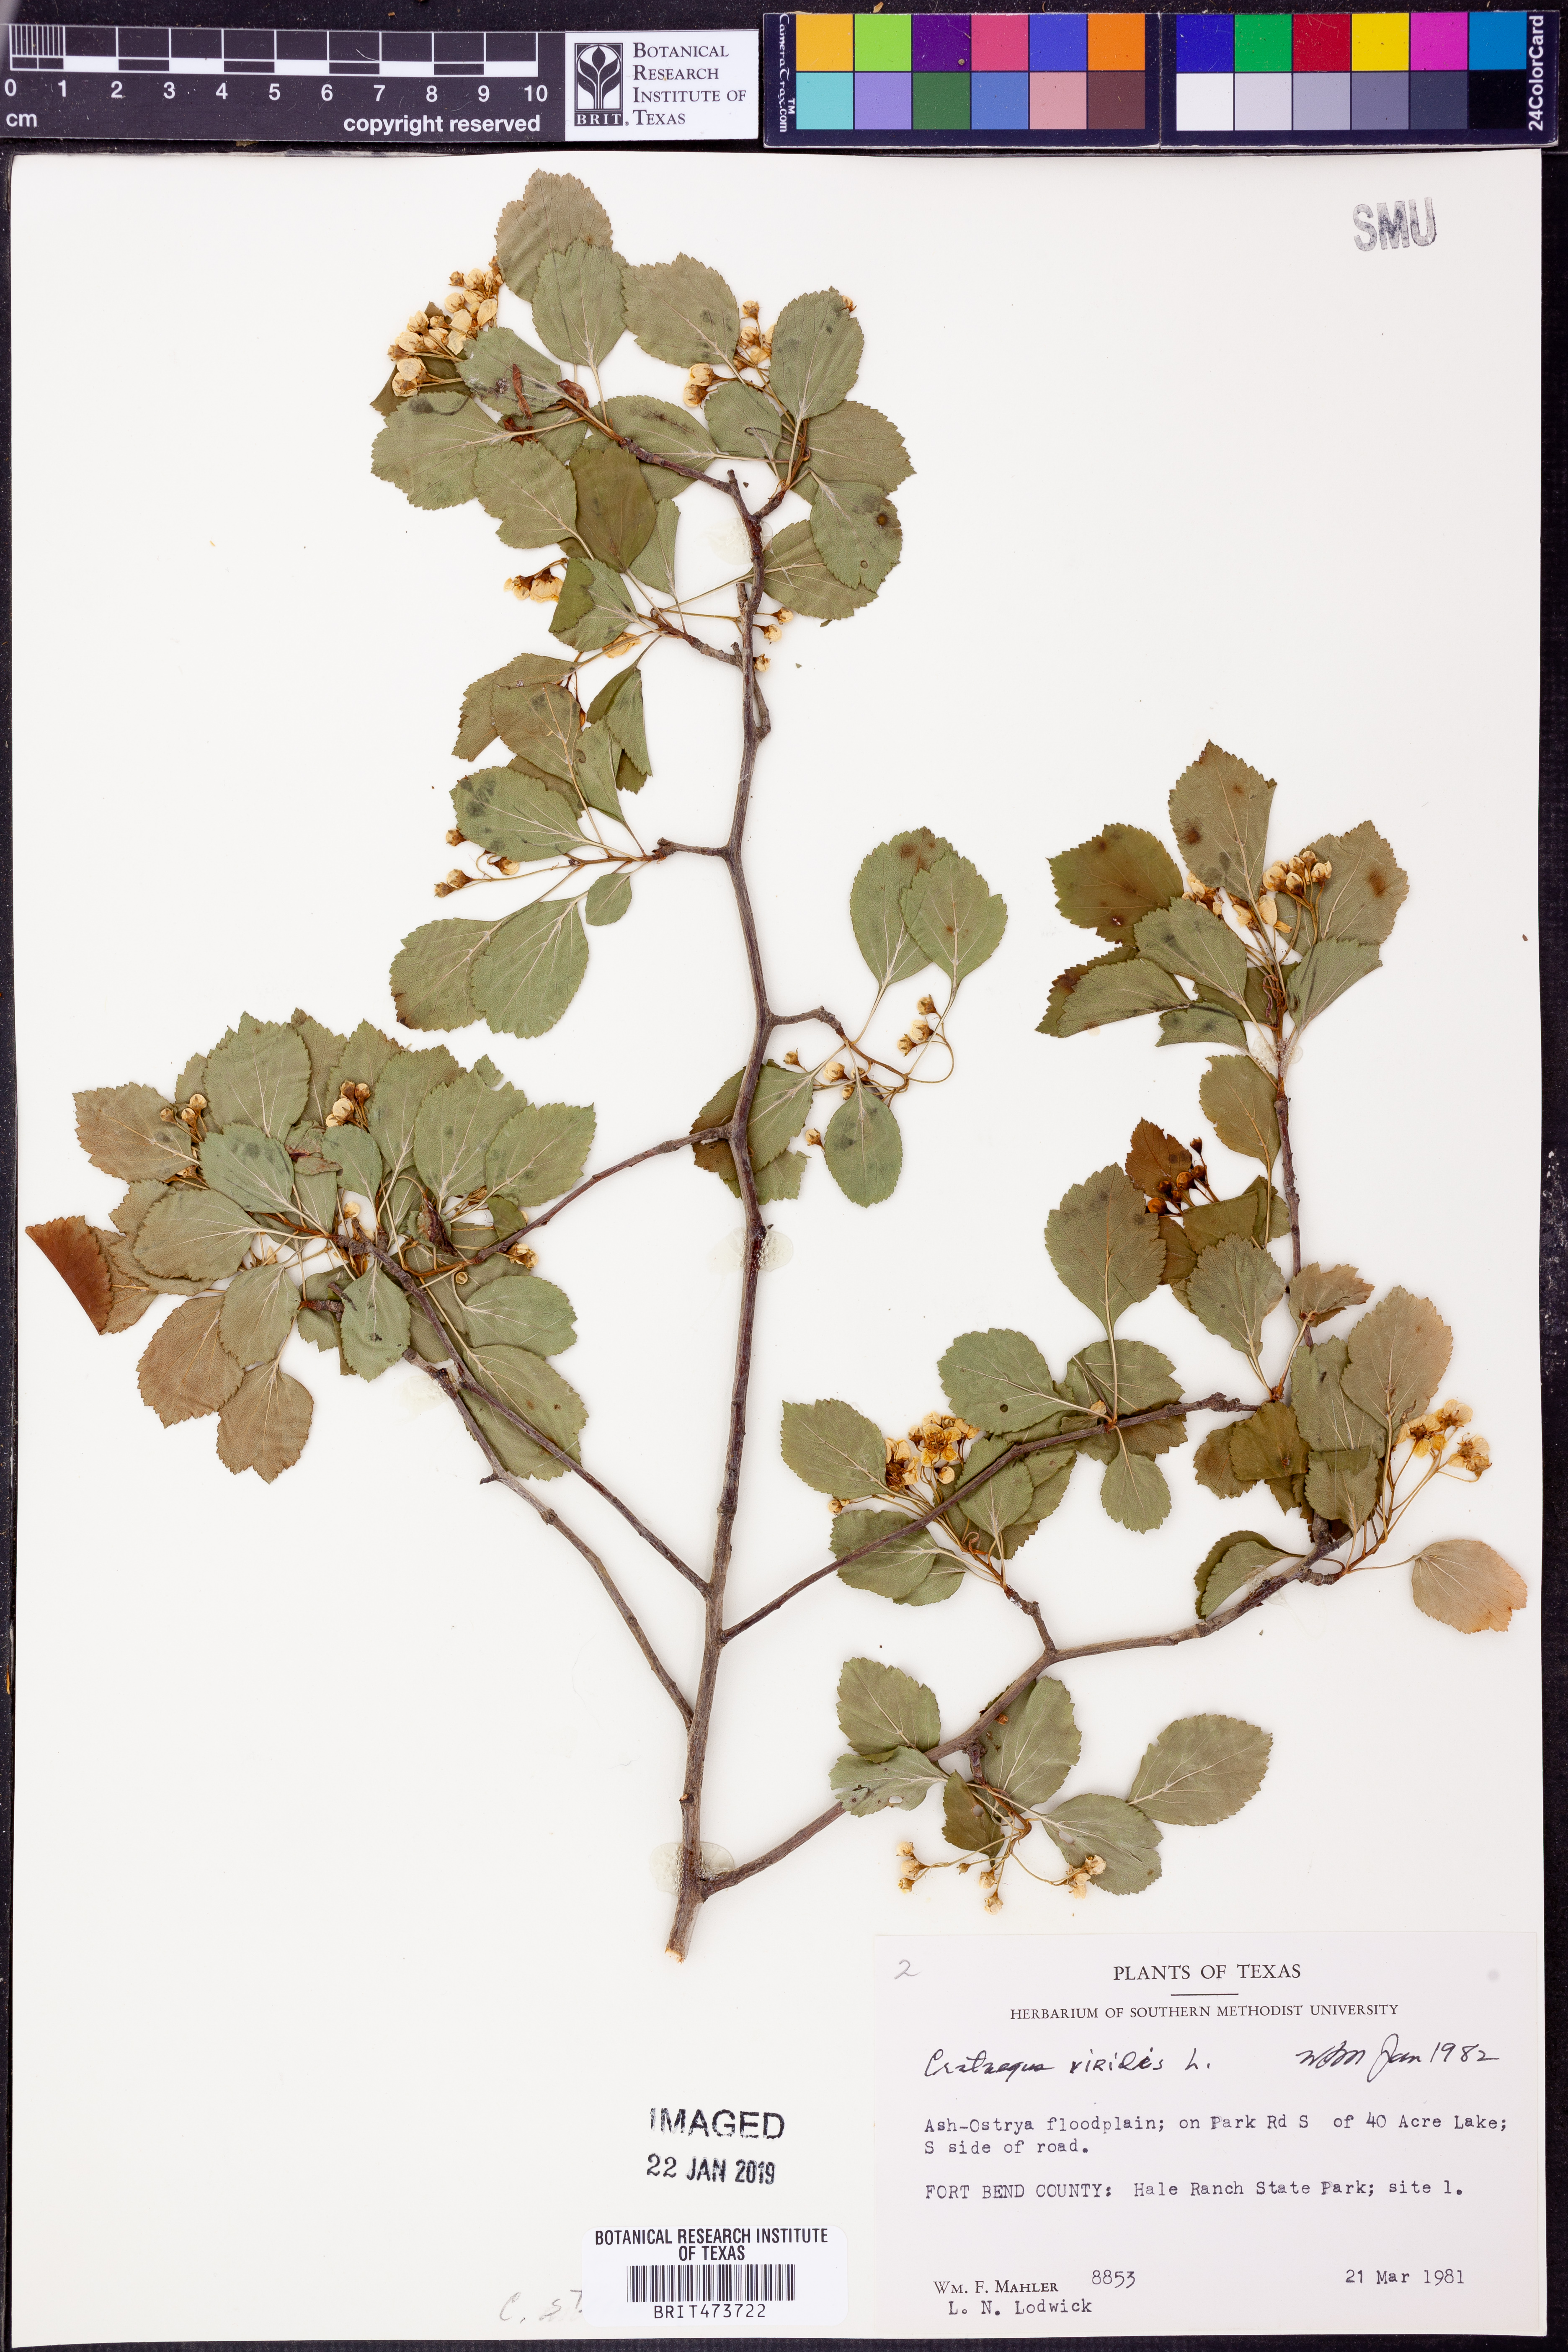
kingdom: Plantae
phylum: Tracheophyta
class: Magnoliopsida
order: Rosales
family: Rosaceae
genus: Crataegus
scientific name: Crataegus succulenta
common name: Fleshy hawthorn
